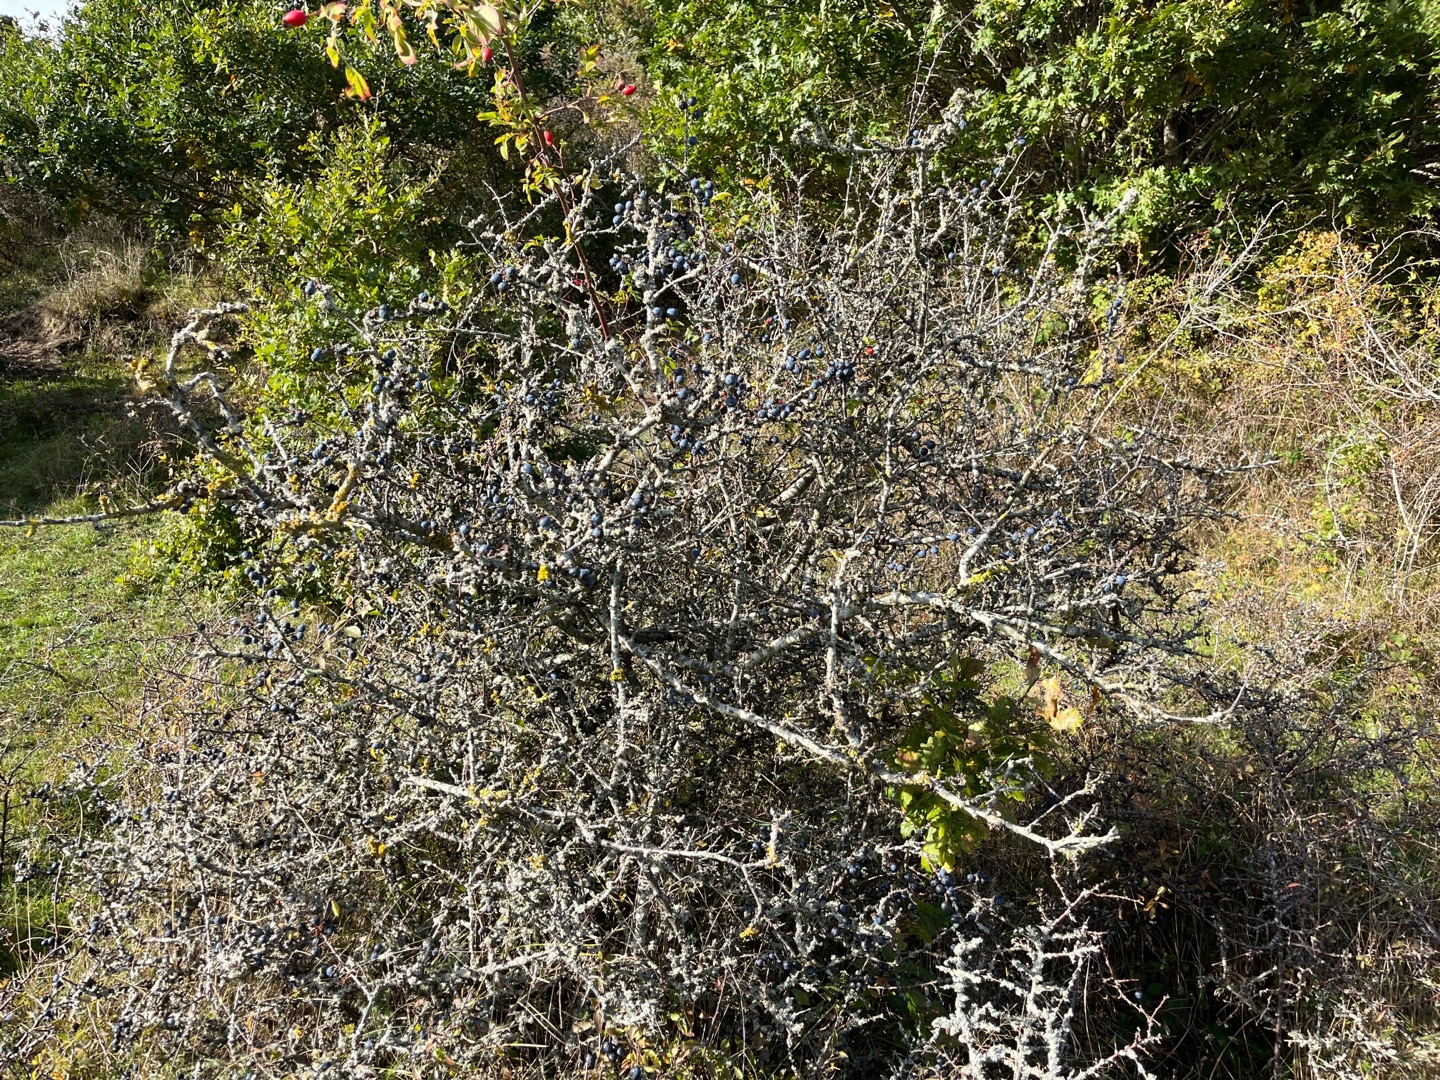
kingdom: Plantae
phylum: Tracheophyta
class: Magnoliopsida
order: Rosales
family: Rosaceae
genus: Prunus
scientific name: Prunus spinosa
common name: Slåen
